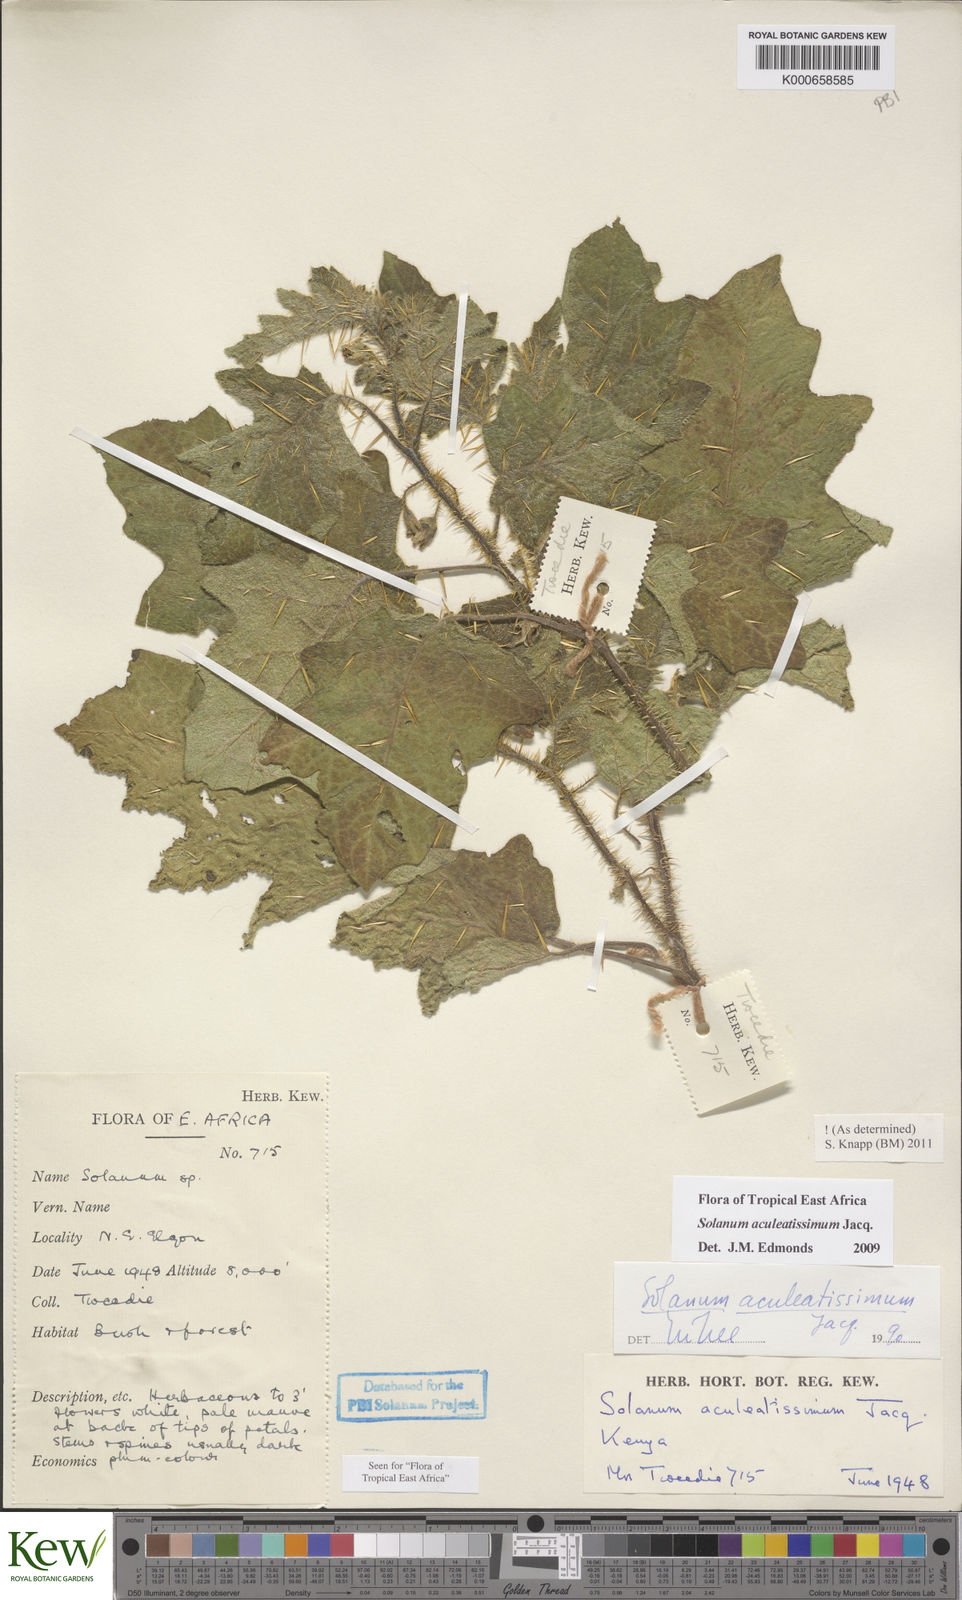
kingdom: Plantae
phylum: Tracheophyta
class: Magnoliopsida
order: Solanales
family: Solanaceae
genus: Solanum
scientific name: Solanum aculeatissimum
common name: Dutch eggplant
